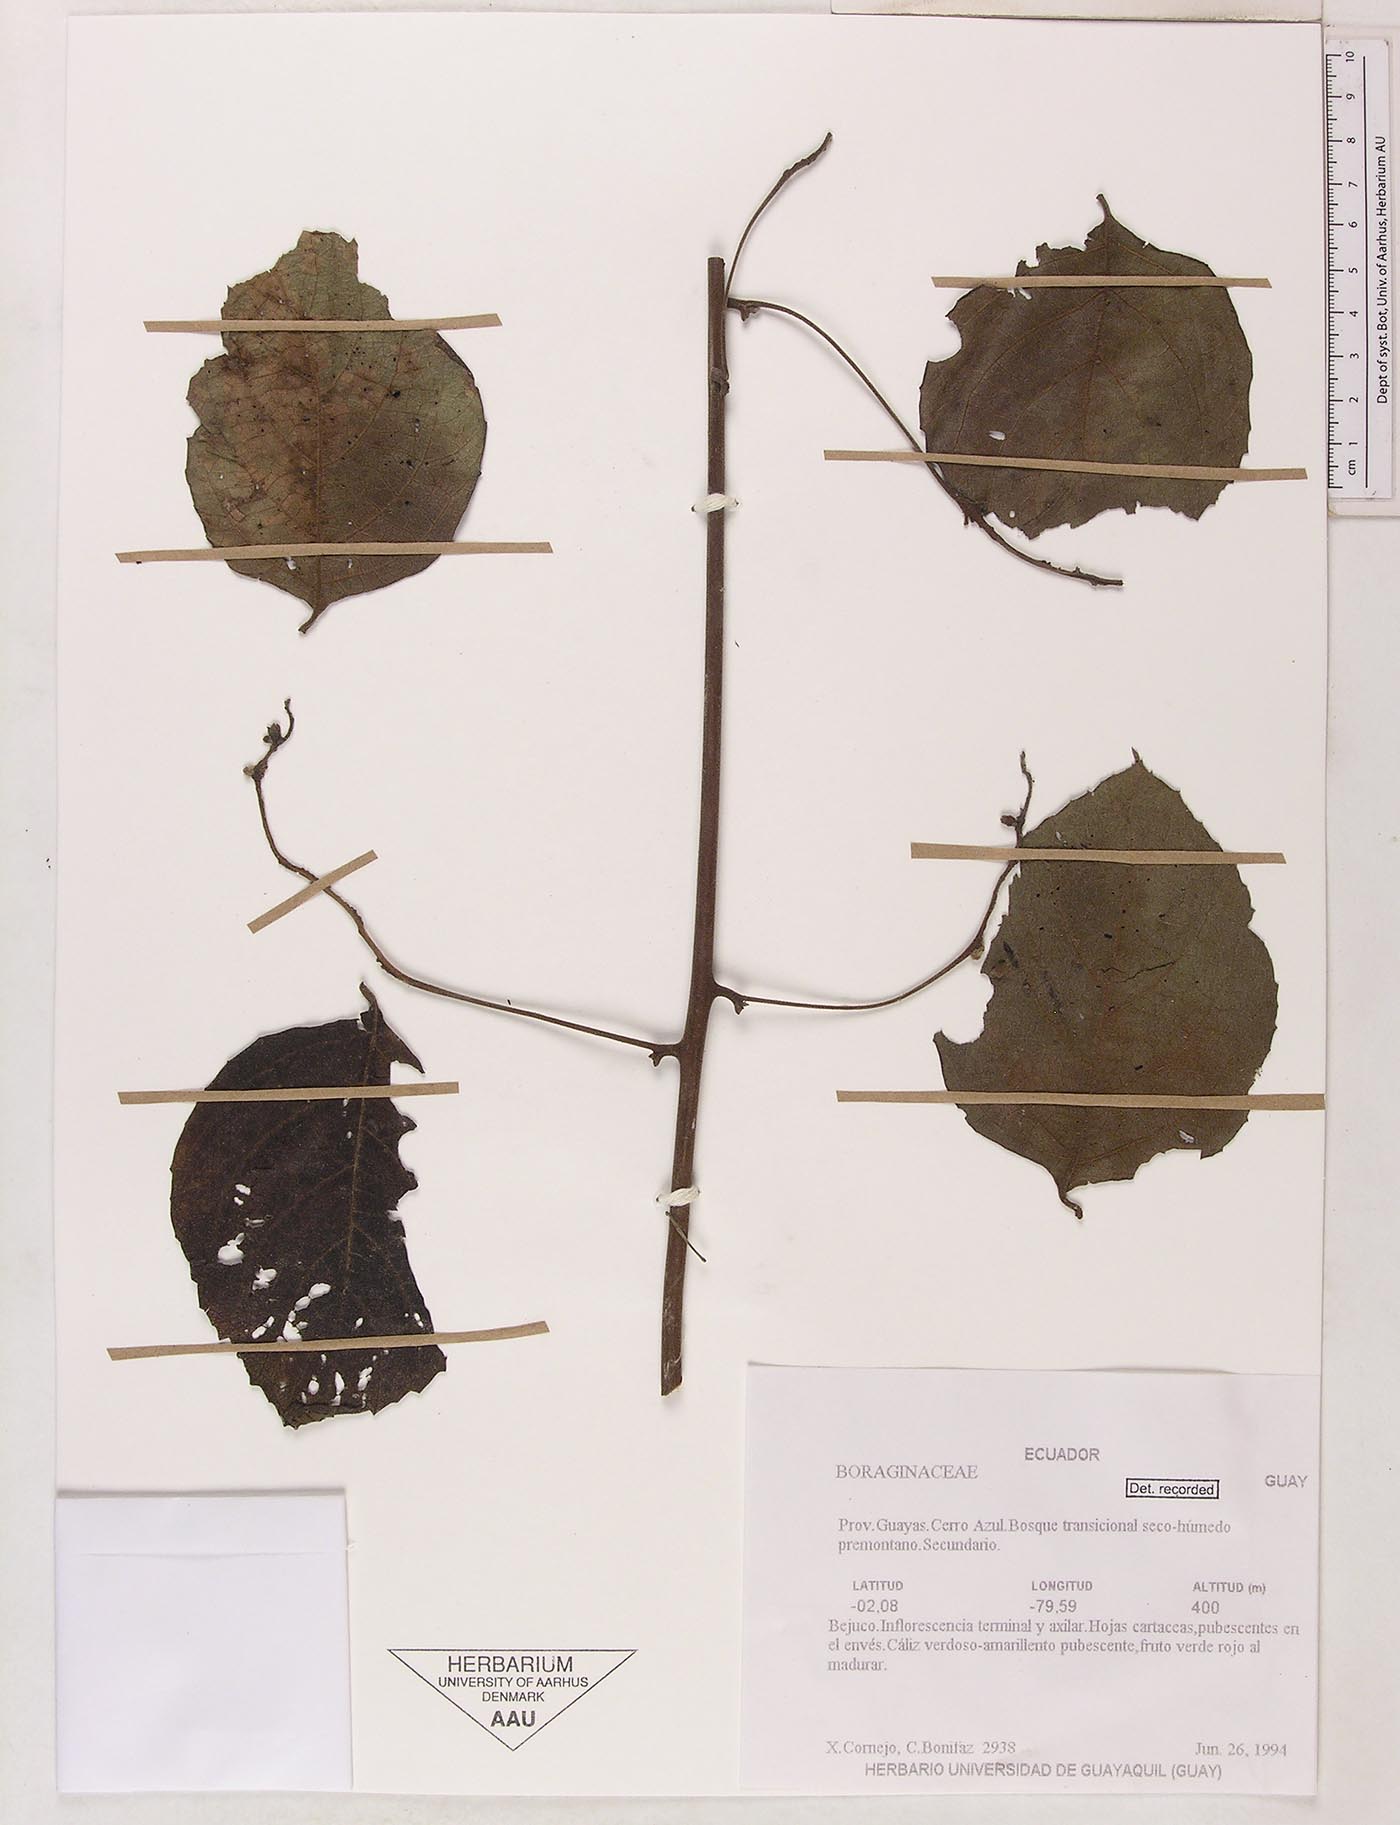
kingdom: Plantae
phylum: Tracheophyta
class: Magnoliopsida
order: Boraginales
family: Cordiaceae
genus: Varronia
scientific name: Varronia
